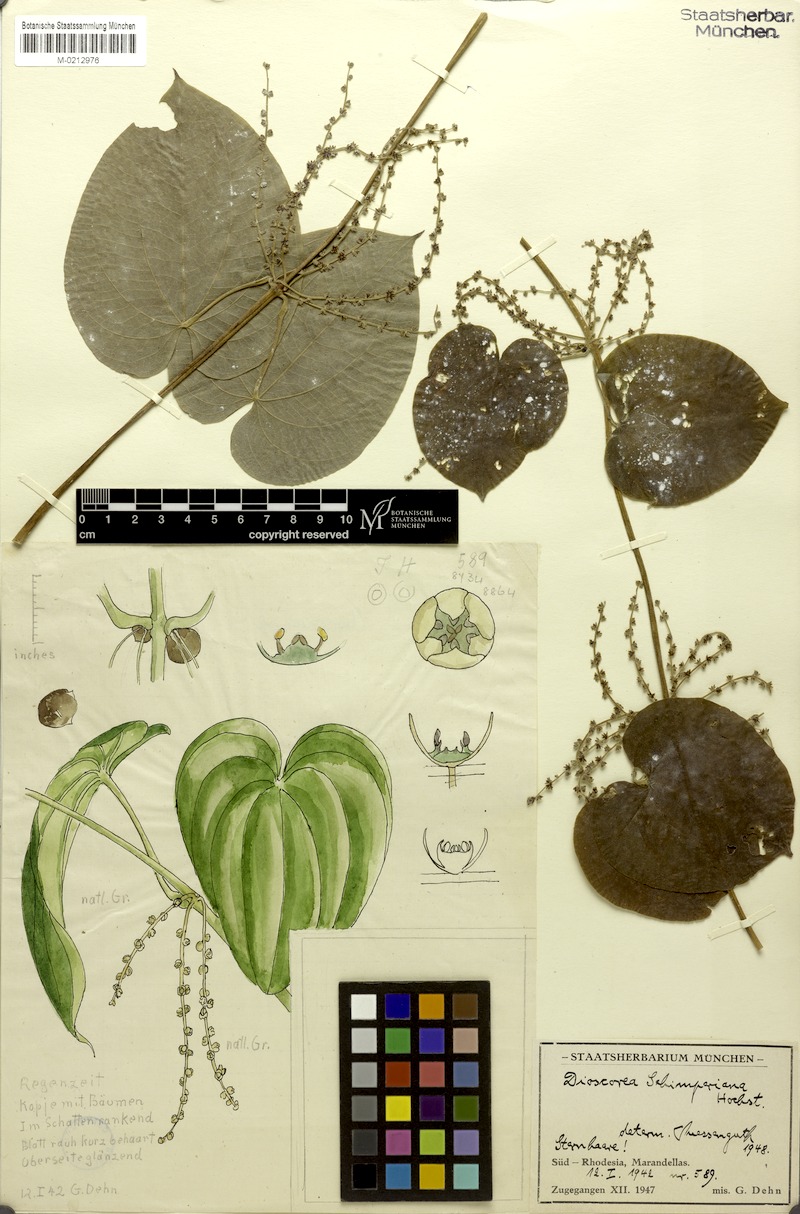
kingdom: Plantae
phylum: Tracheophyta
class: Liliopsida
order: Dioscoreales
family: Dioscoreaceae
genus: Dioscorea
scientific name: Dioscorea schimperiana
